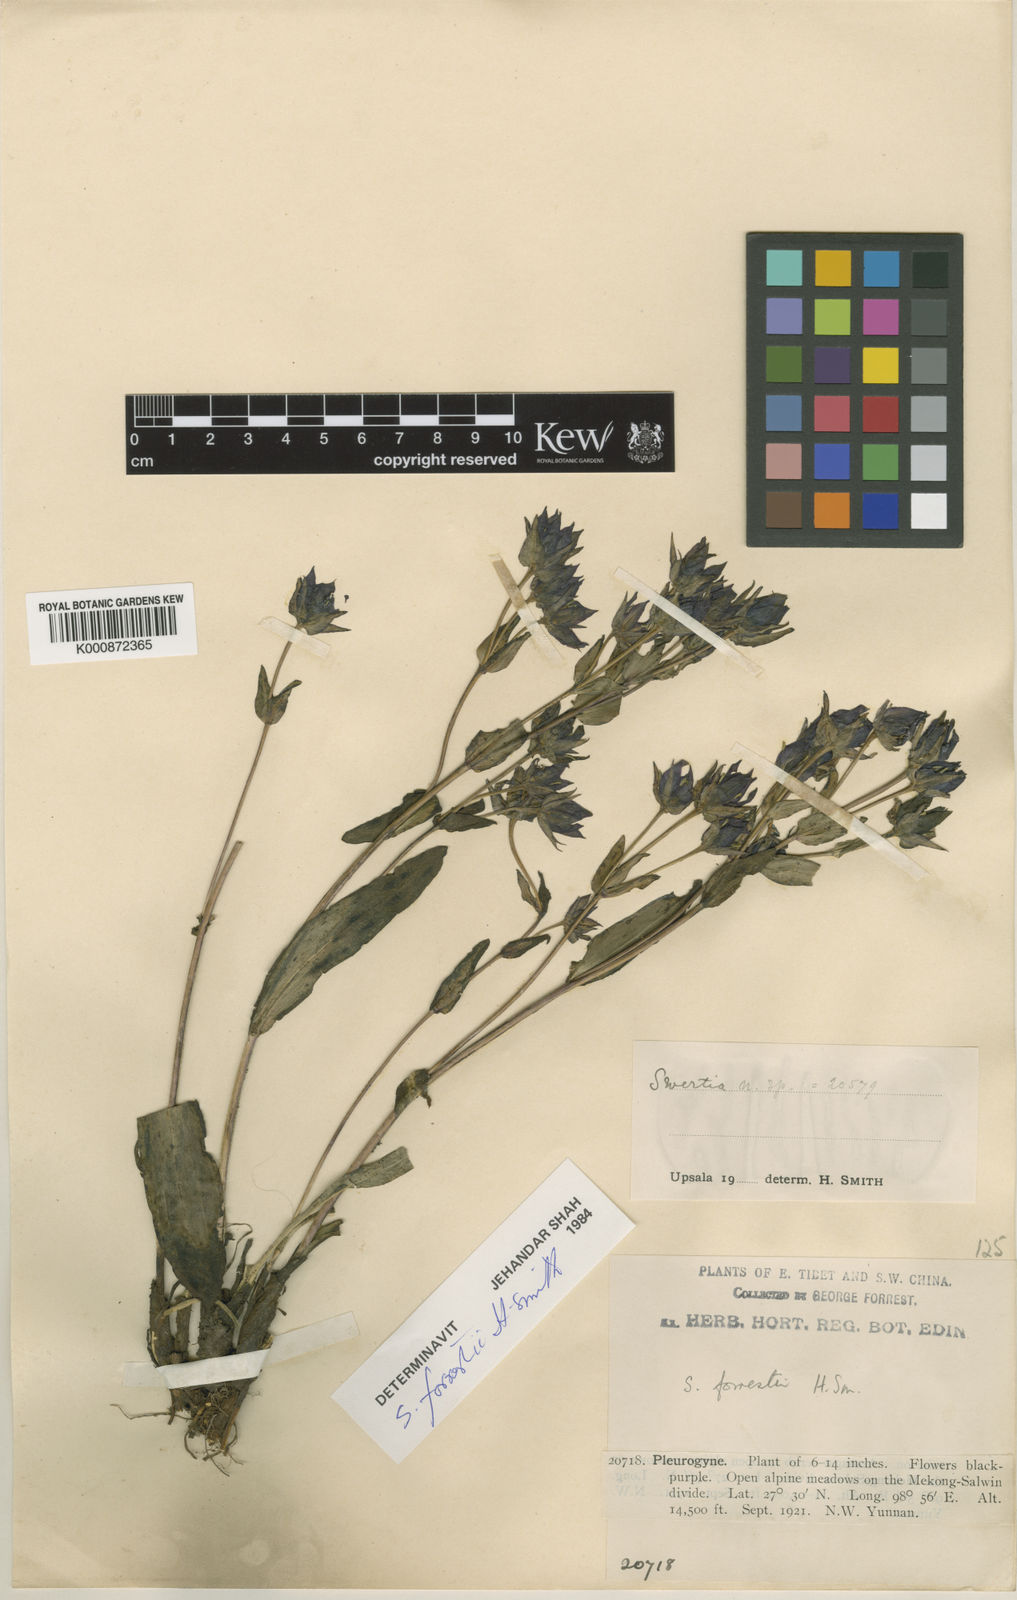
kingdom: Plantae
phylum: Tracheophyta
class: Magnoliopsida
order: Gentianales
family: Gentianaceae
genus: Swertia
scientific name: Swertia forrestii
